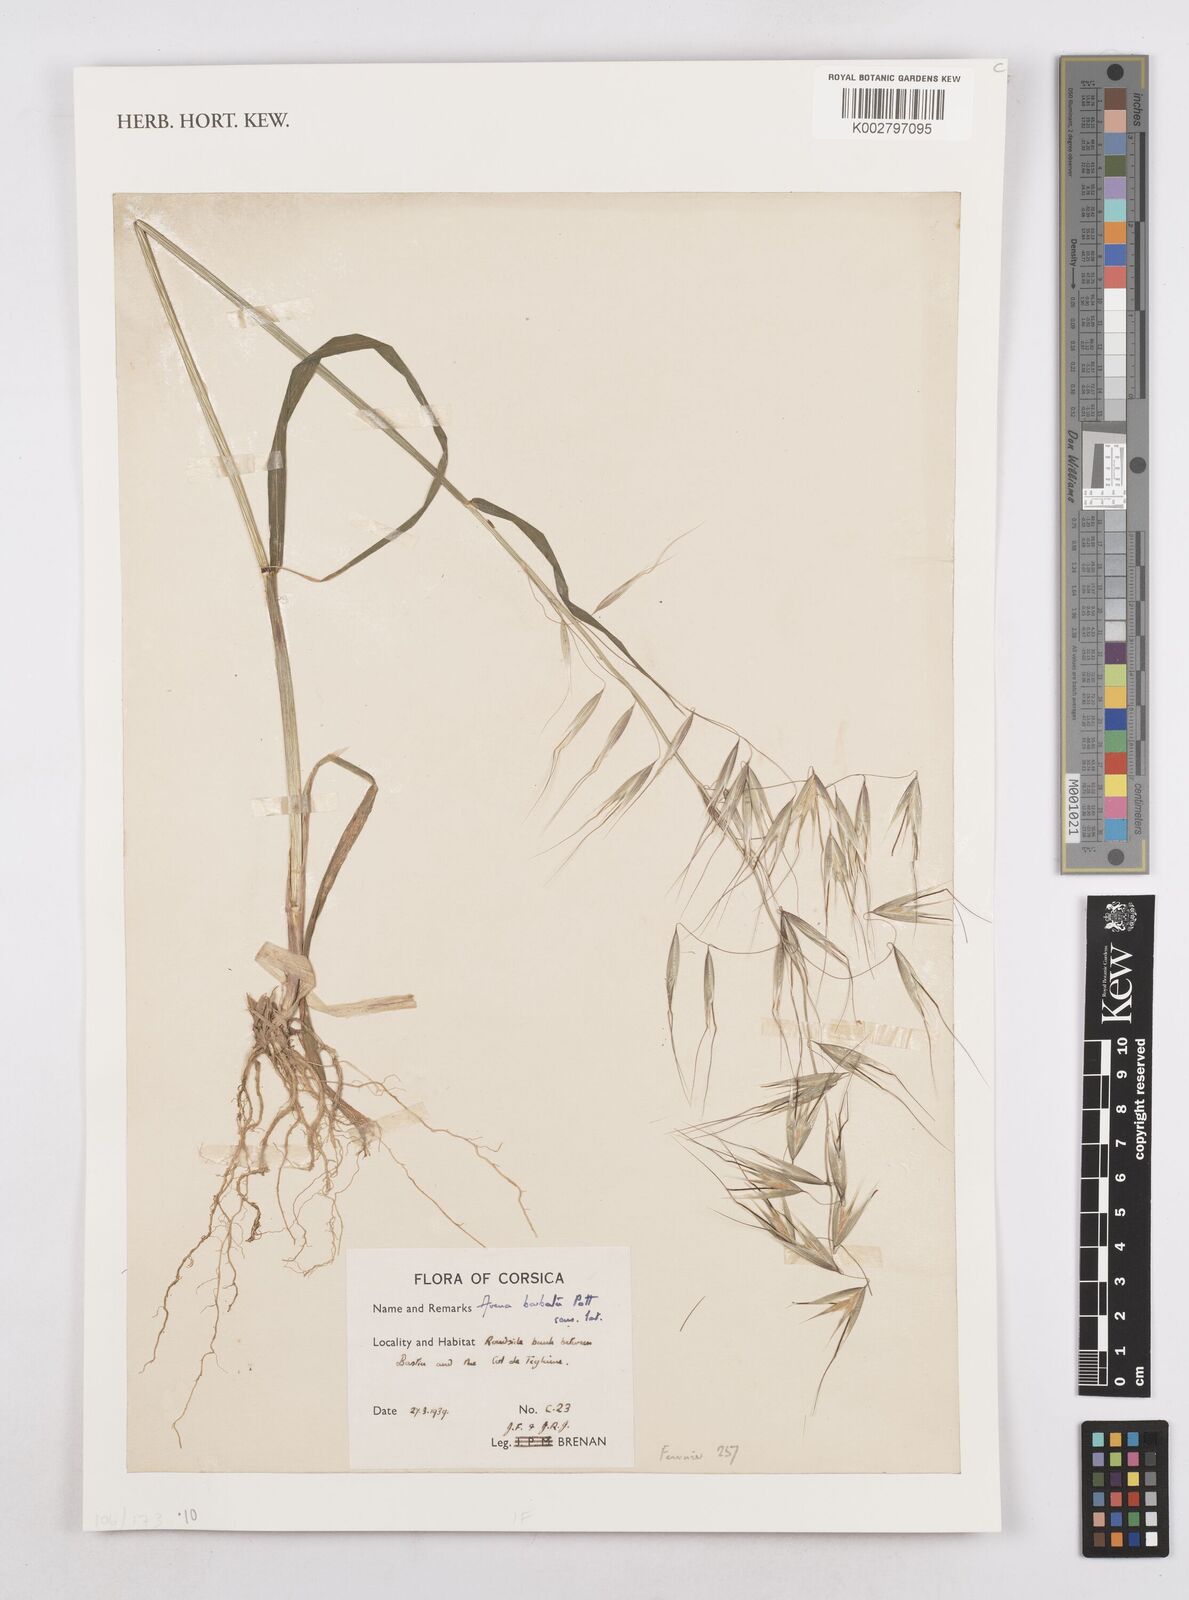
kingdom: Plantae
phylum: Tracheophyta
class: Liliopsida
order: Poales
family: Poaceae
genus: Avena
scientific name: Avena
